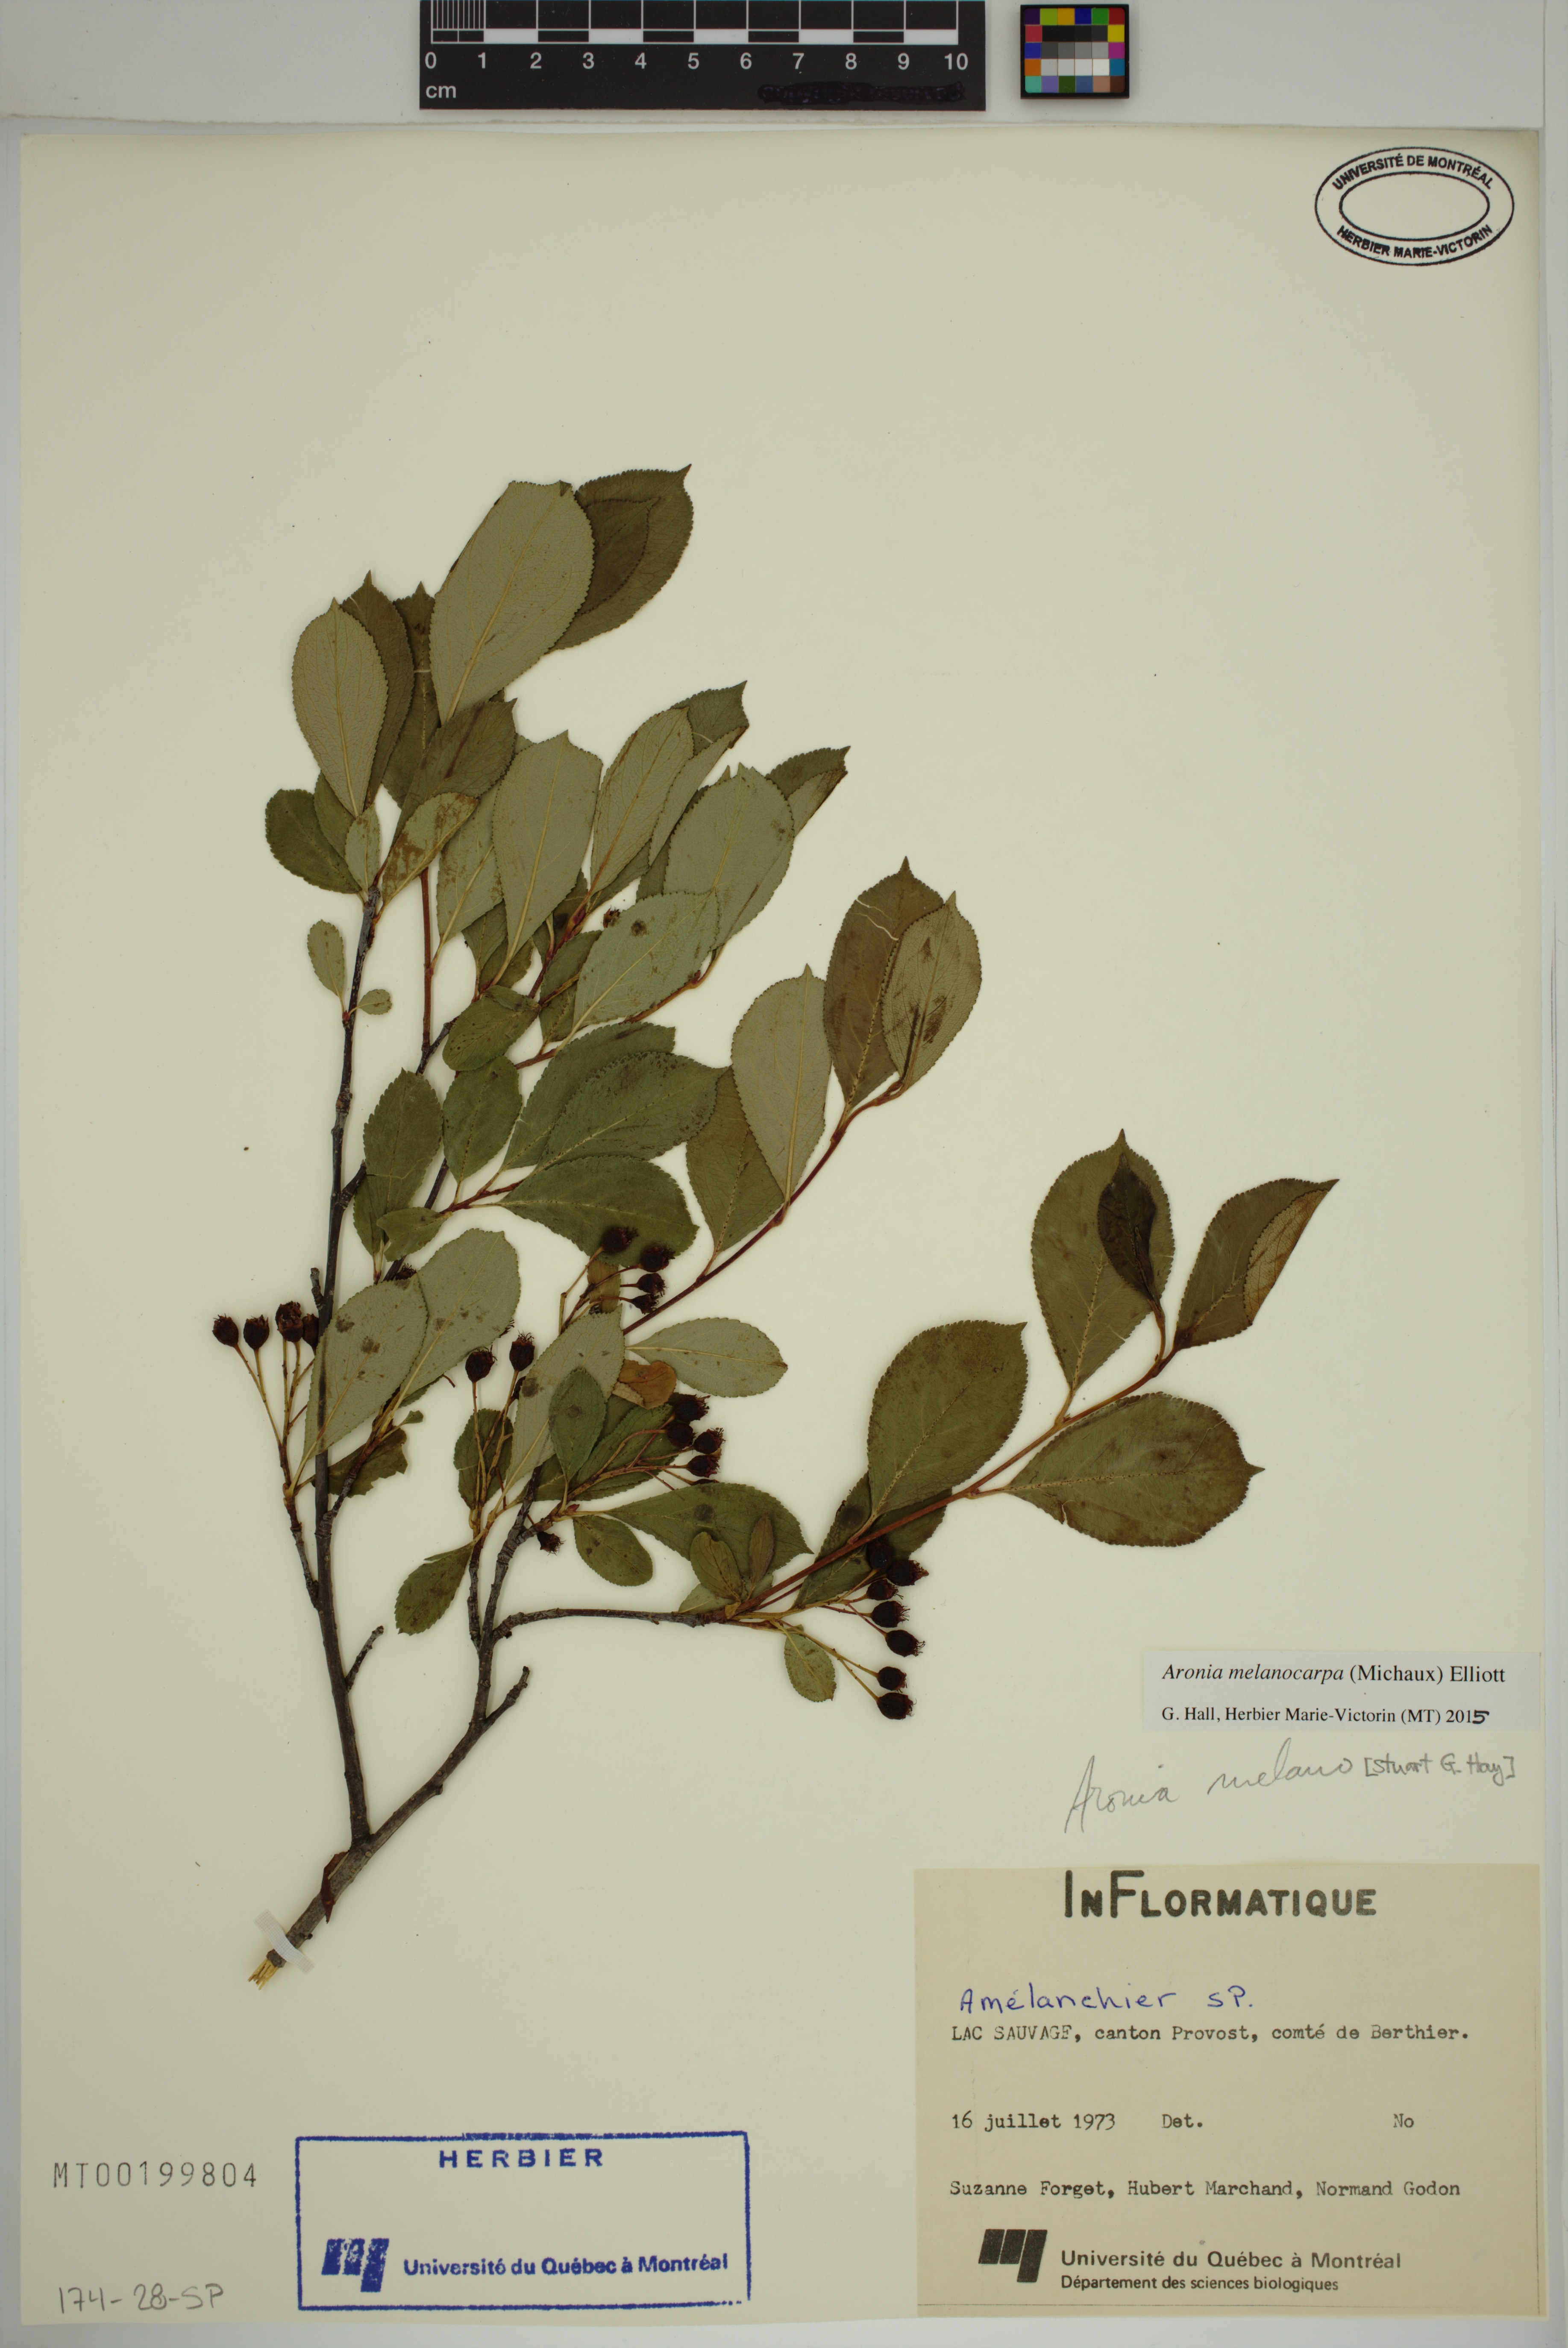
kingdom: Plantae
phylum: Tracheophyta
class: Magnoliopsida
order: Rosales
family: Rosaceae
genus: Aronia
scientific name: Aronia melanocarpa
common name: Black chokeberry
